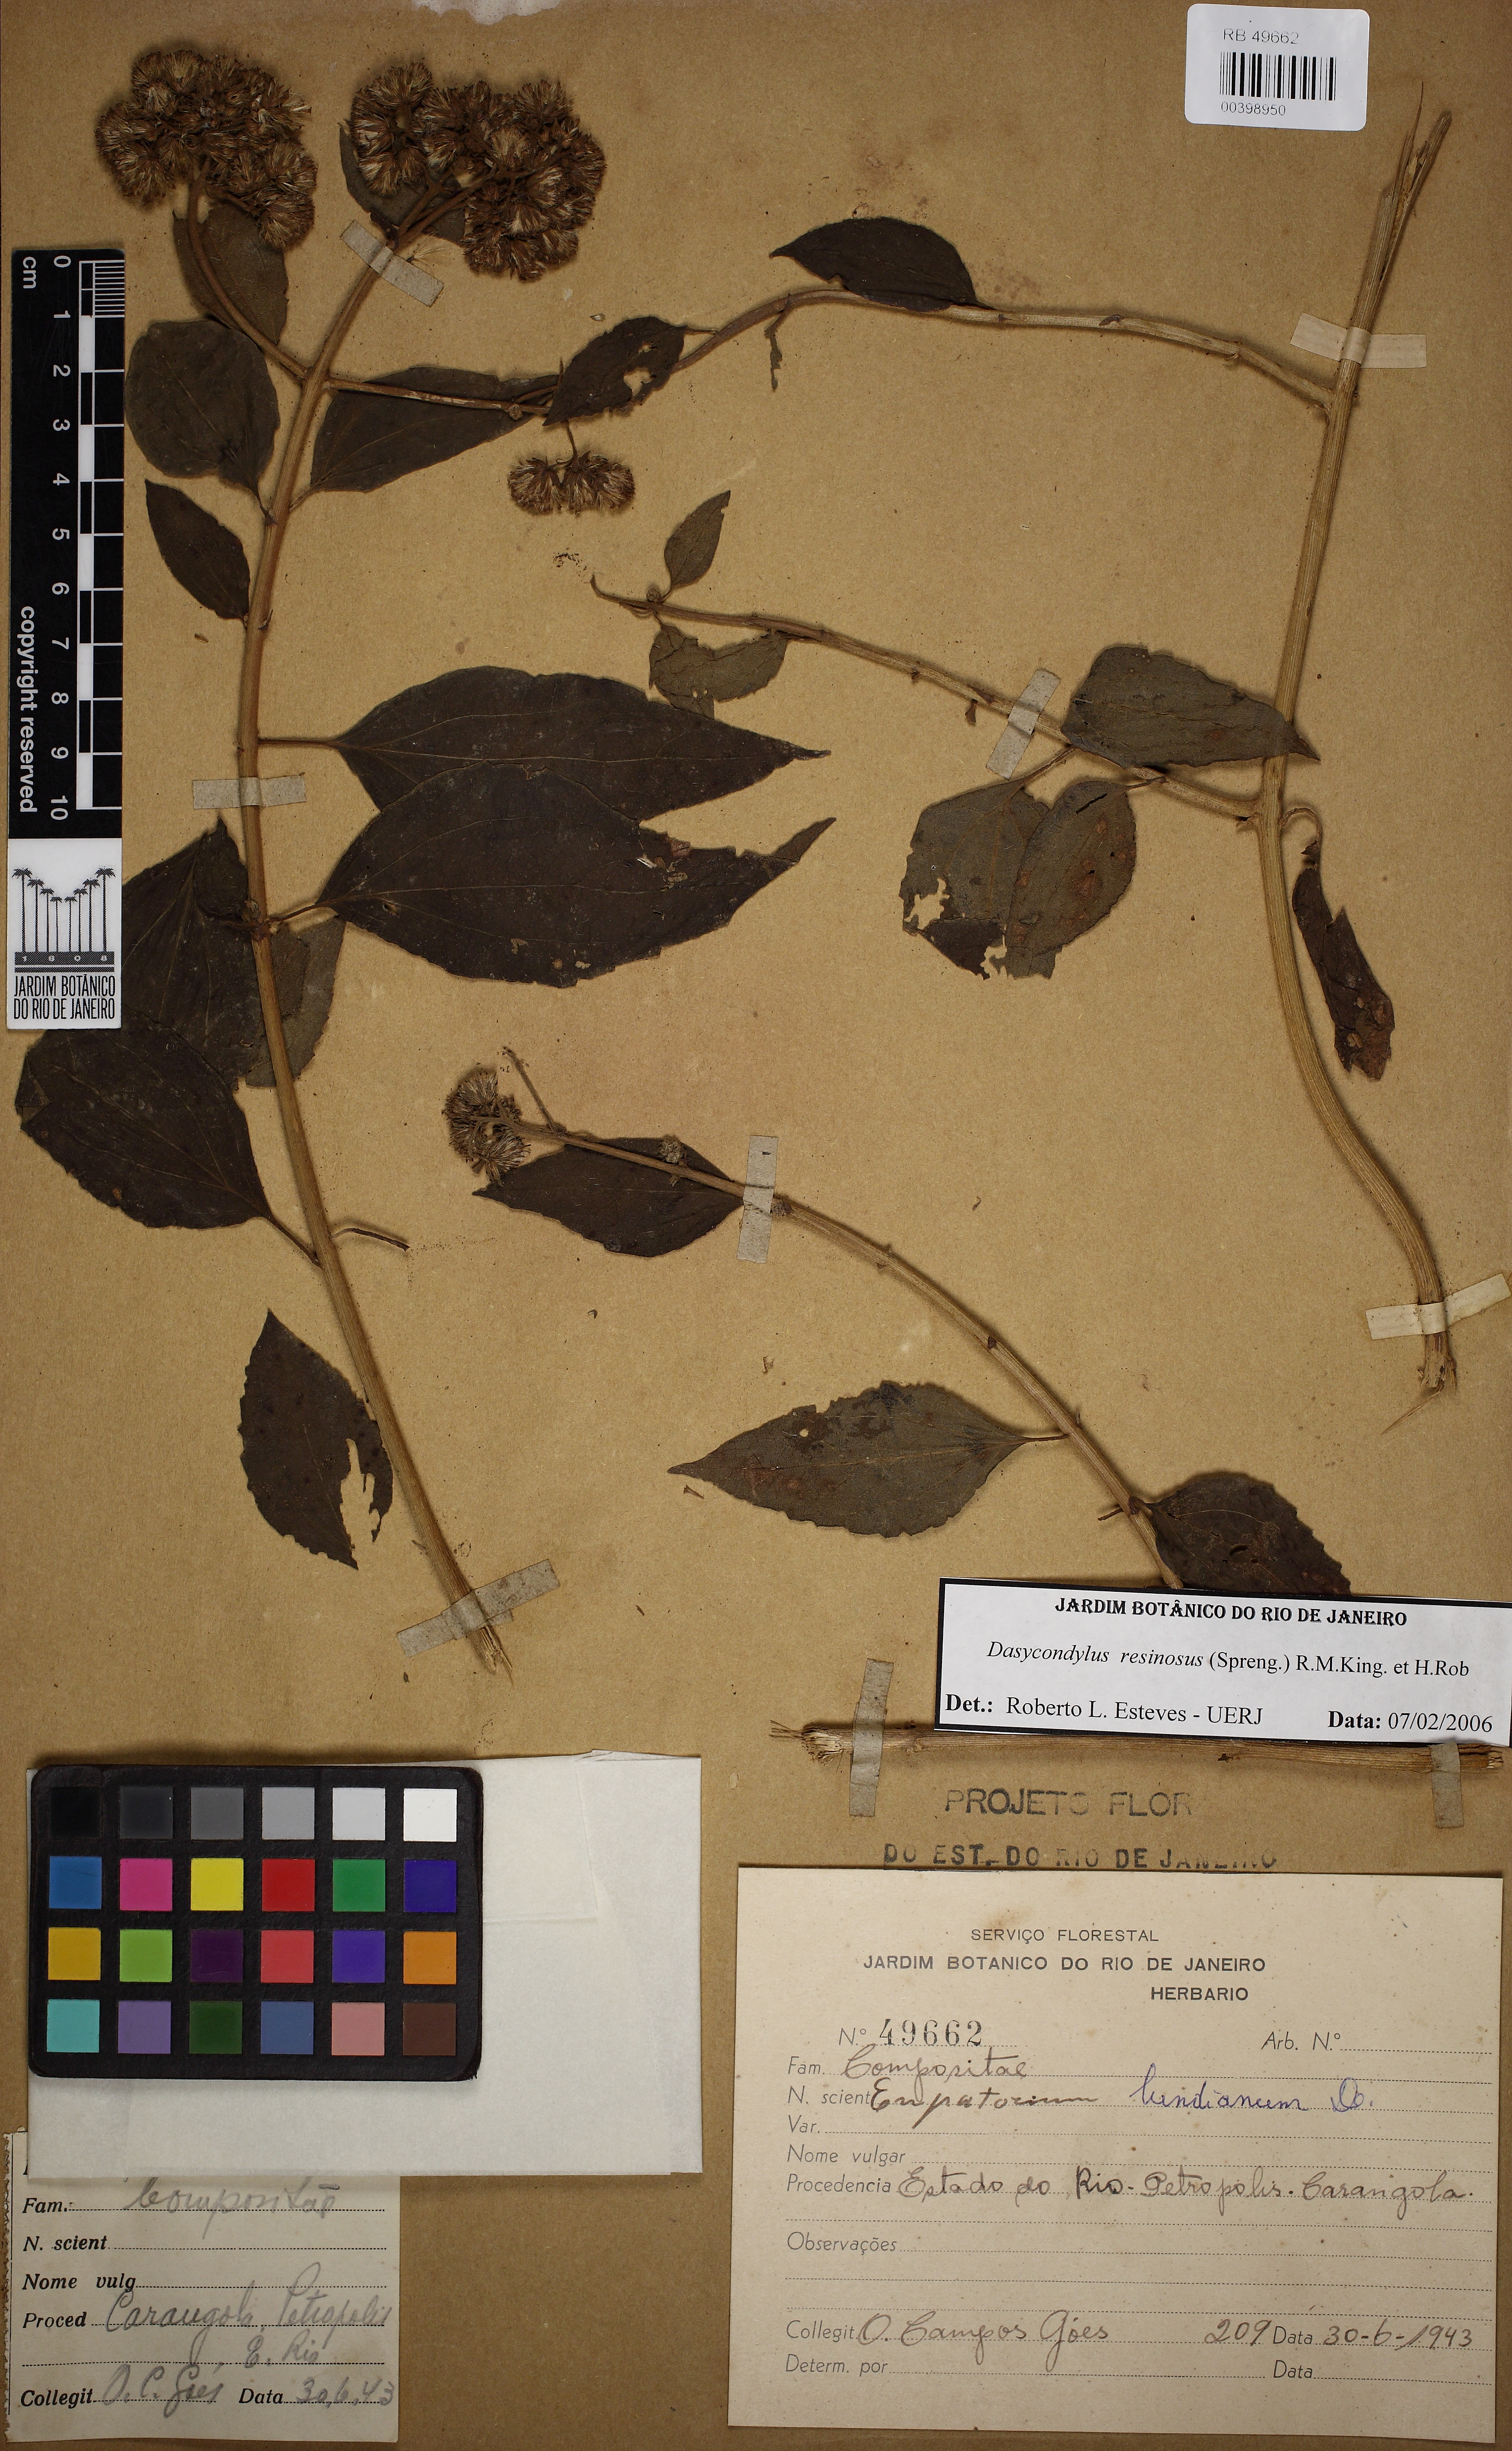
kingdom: Plantae
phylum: Tracheophyta
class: Magnoliopsida
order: Asterales
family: Asteraceae
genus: Dasycondylus
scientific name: Dasycondylus resinosus
